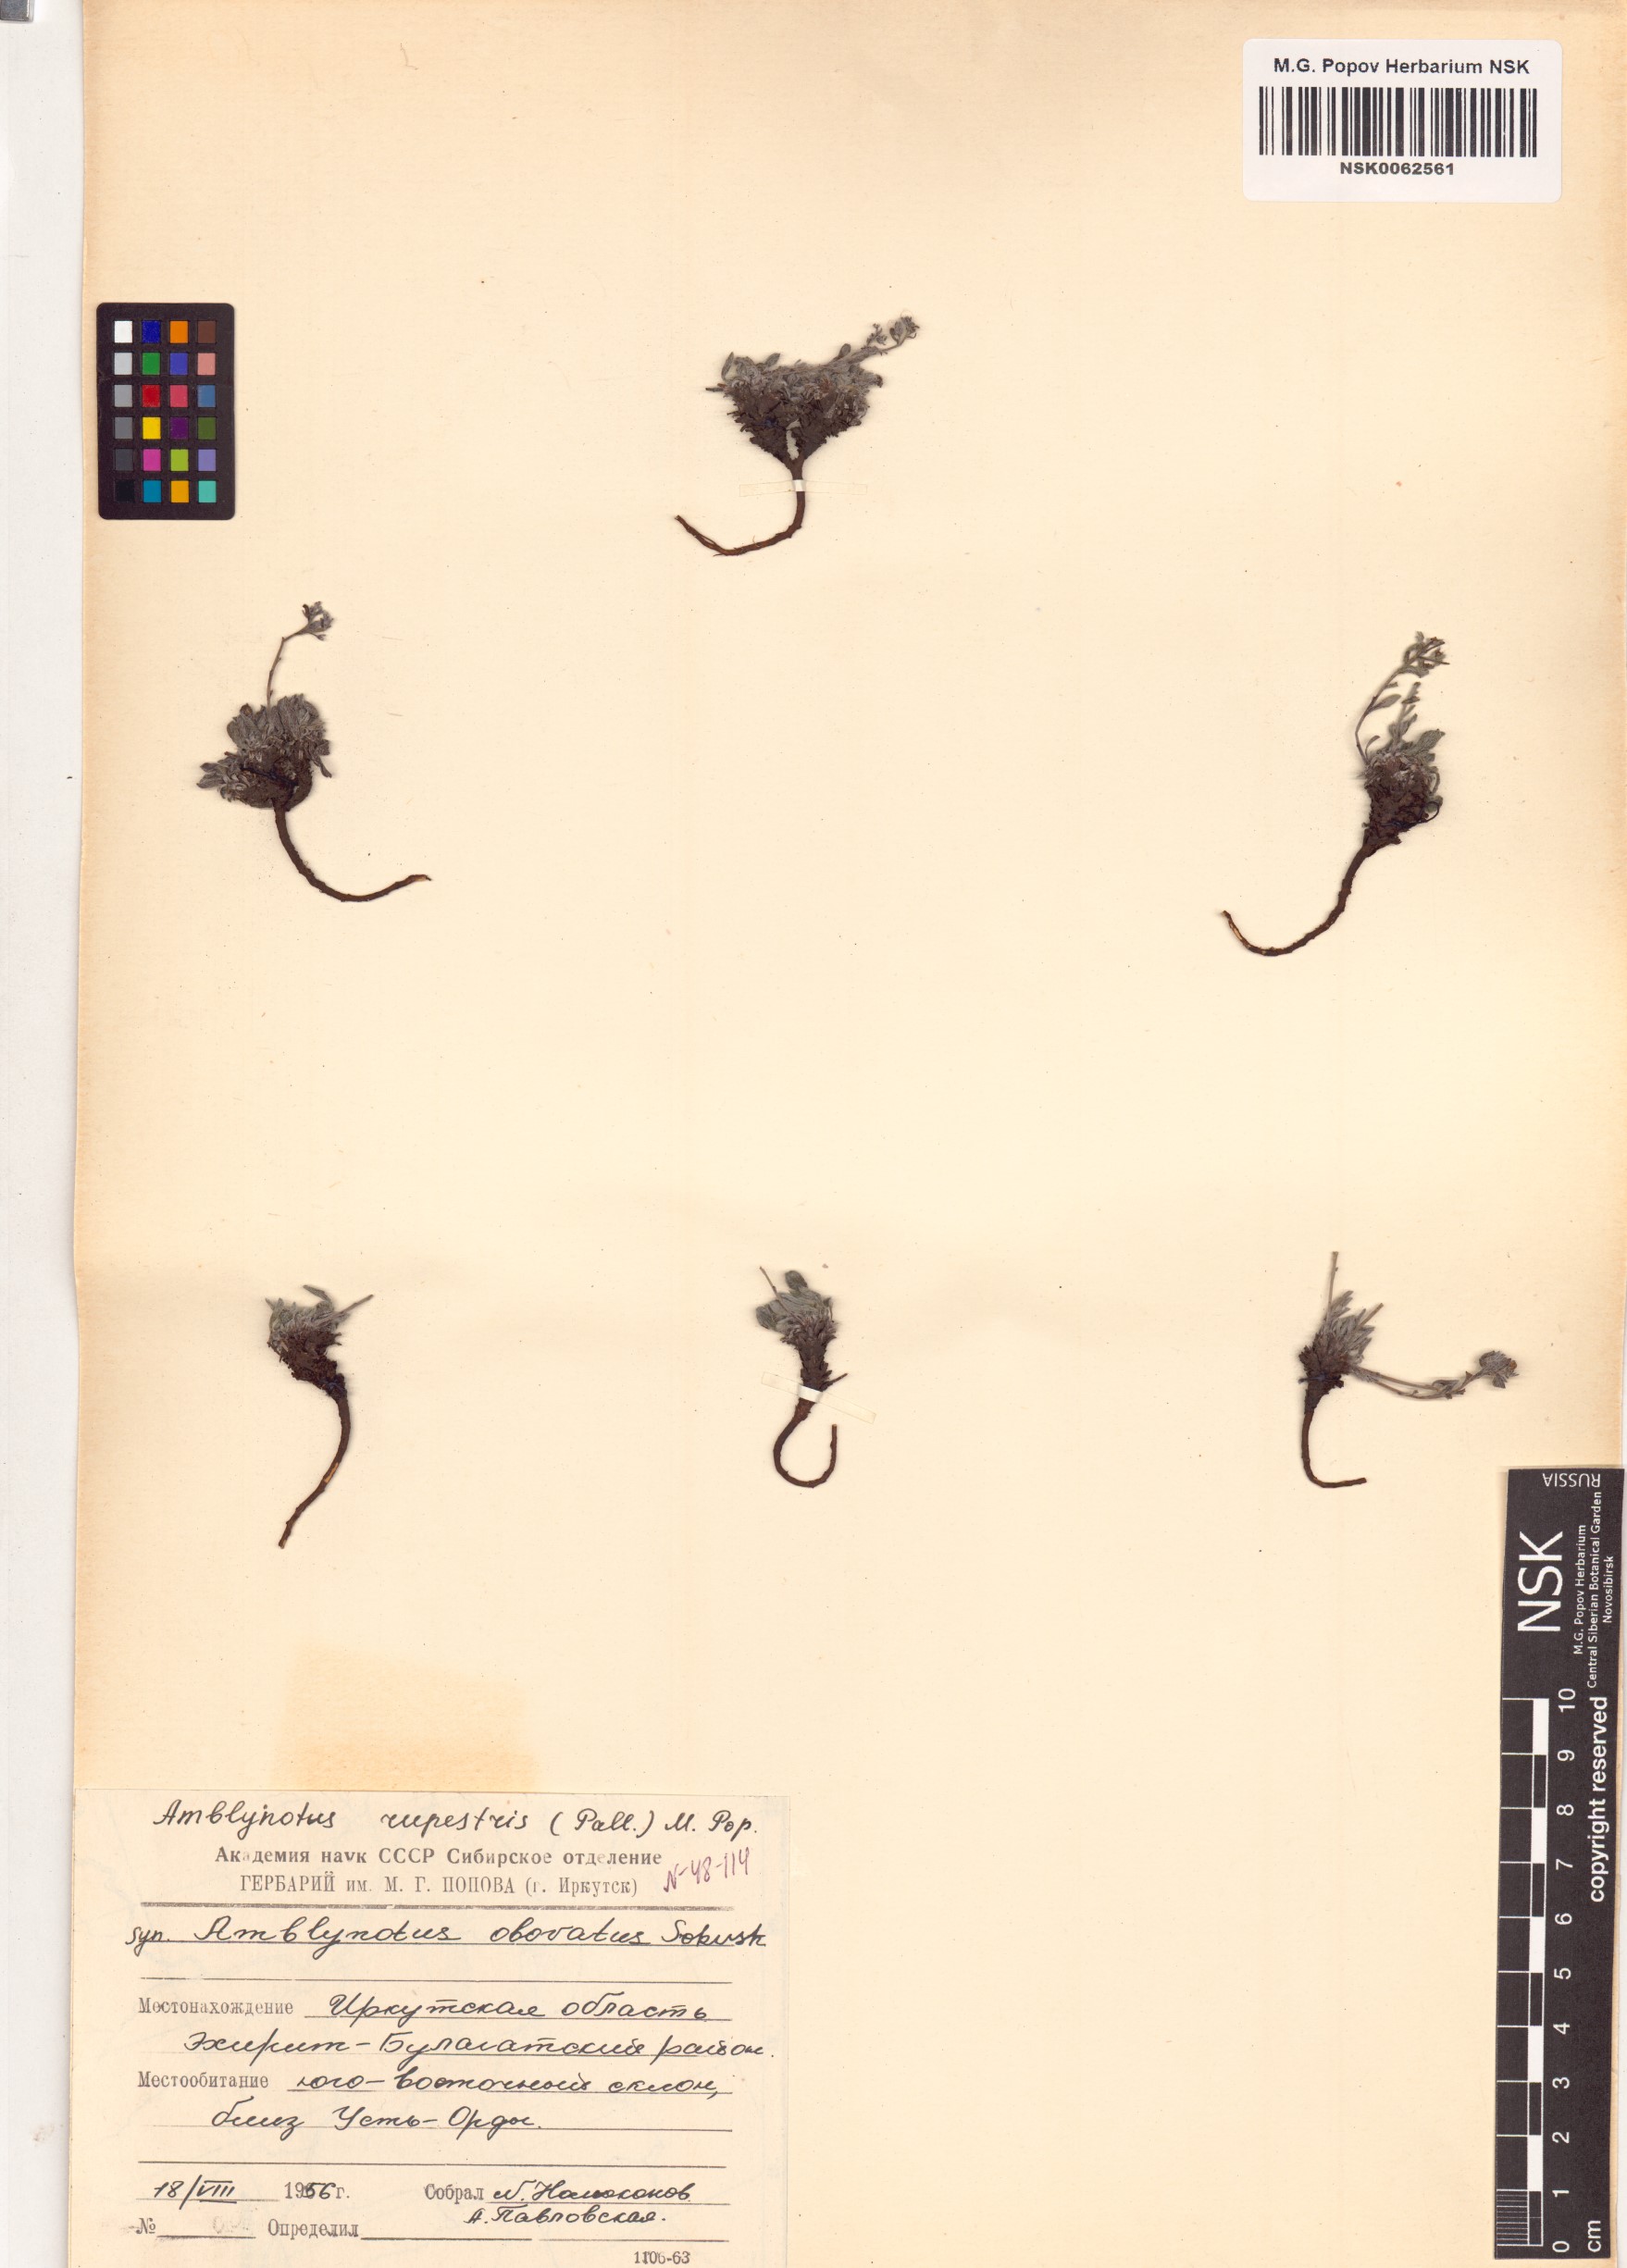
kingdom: Plantae
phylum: Tracheophyta
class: Magnoliopsida
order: Boraginales
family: Boraginaceae
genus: Eritrichium
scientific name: Eritrichium rupestre
